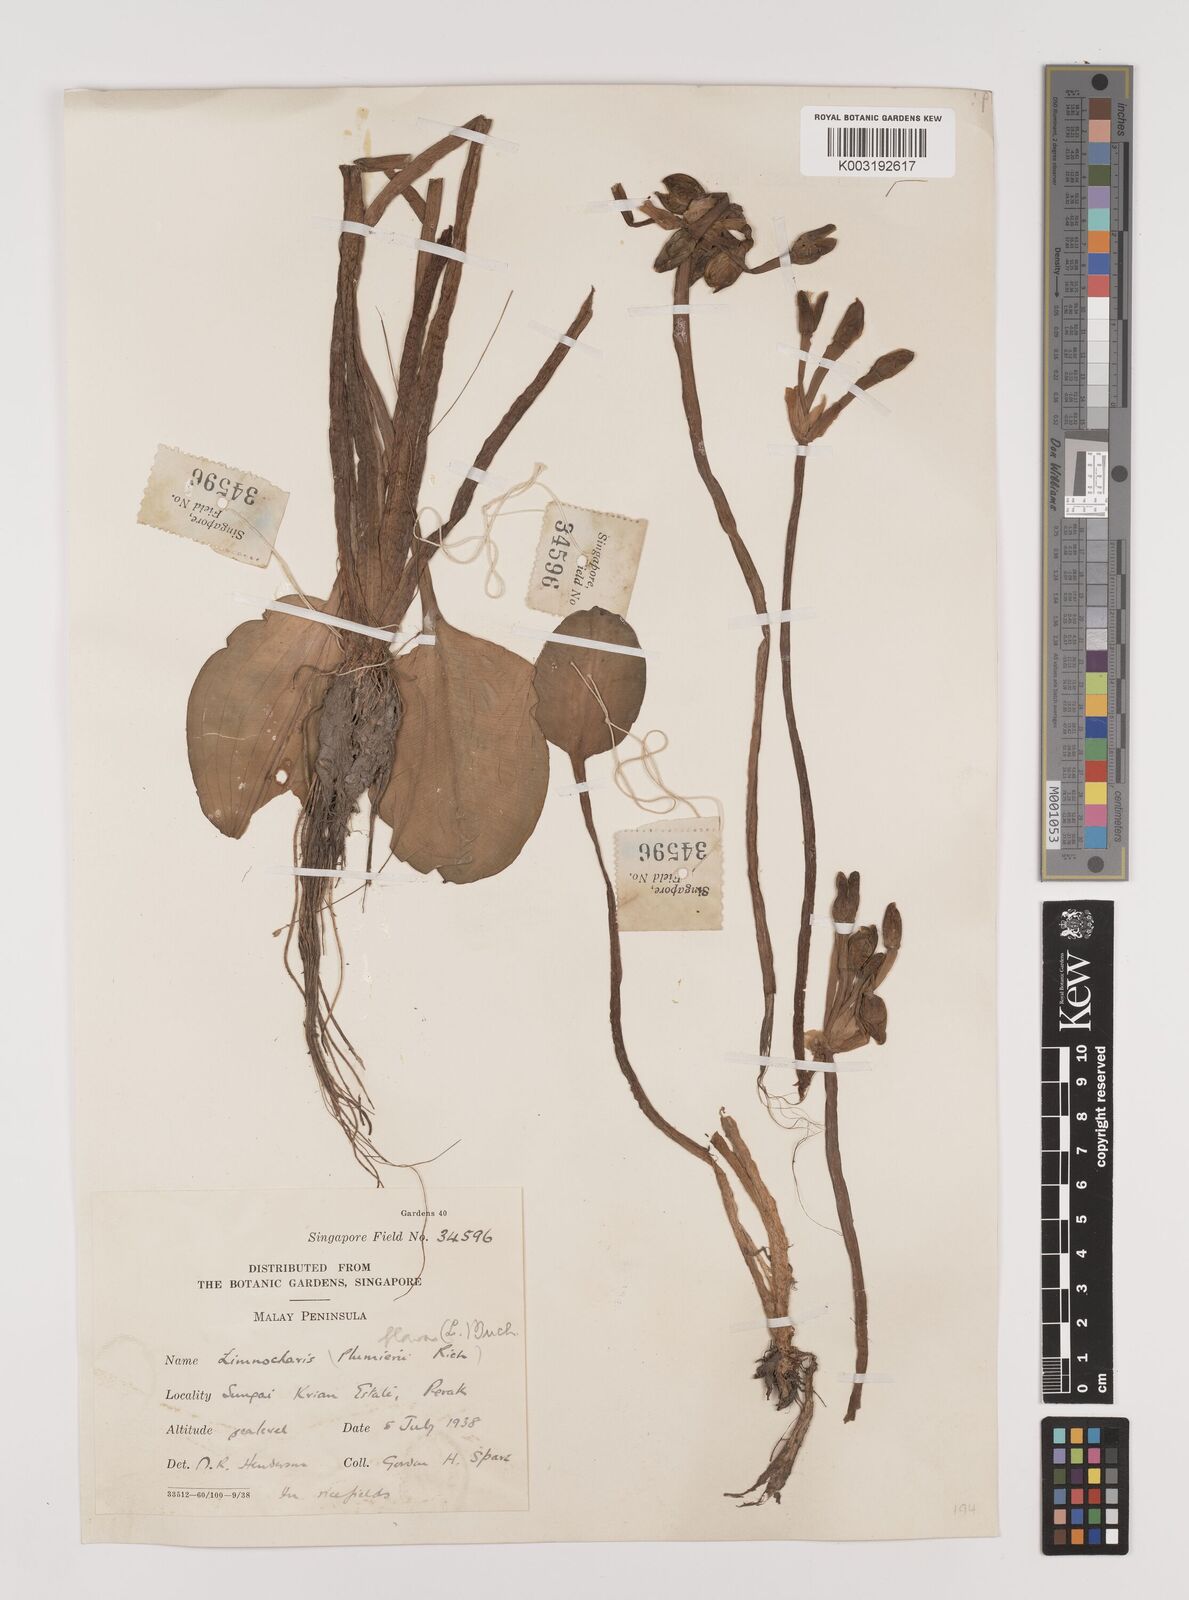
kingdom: Plantae
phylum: Tracheophyta
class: Liliopsida
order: Alismatales
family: Alismataceae
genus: Limnocharis
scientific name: Limnocharis flava
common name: Sawah-flower-rush
